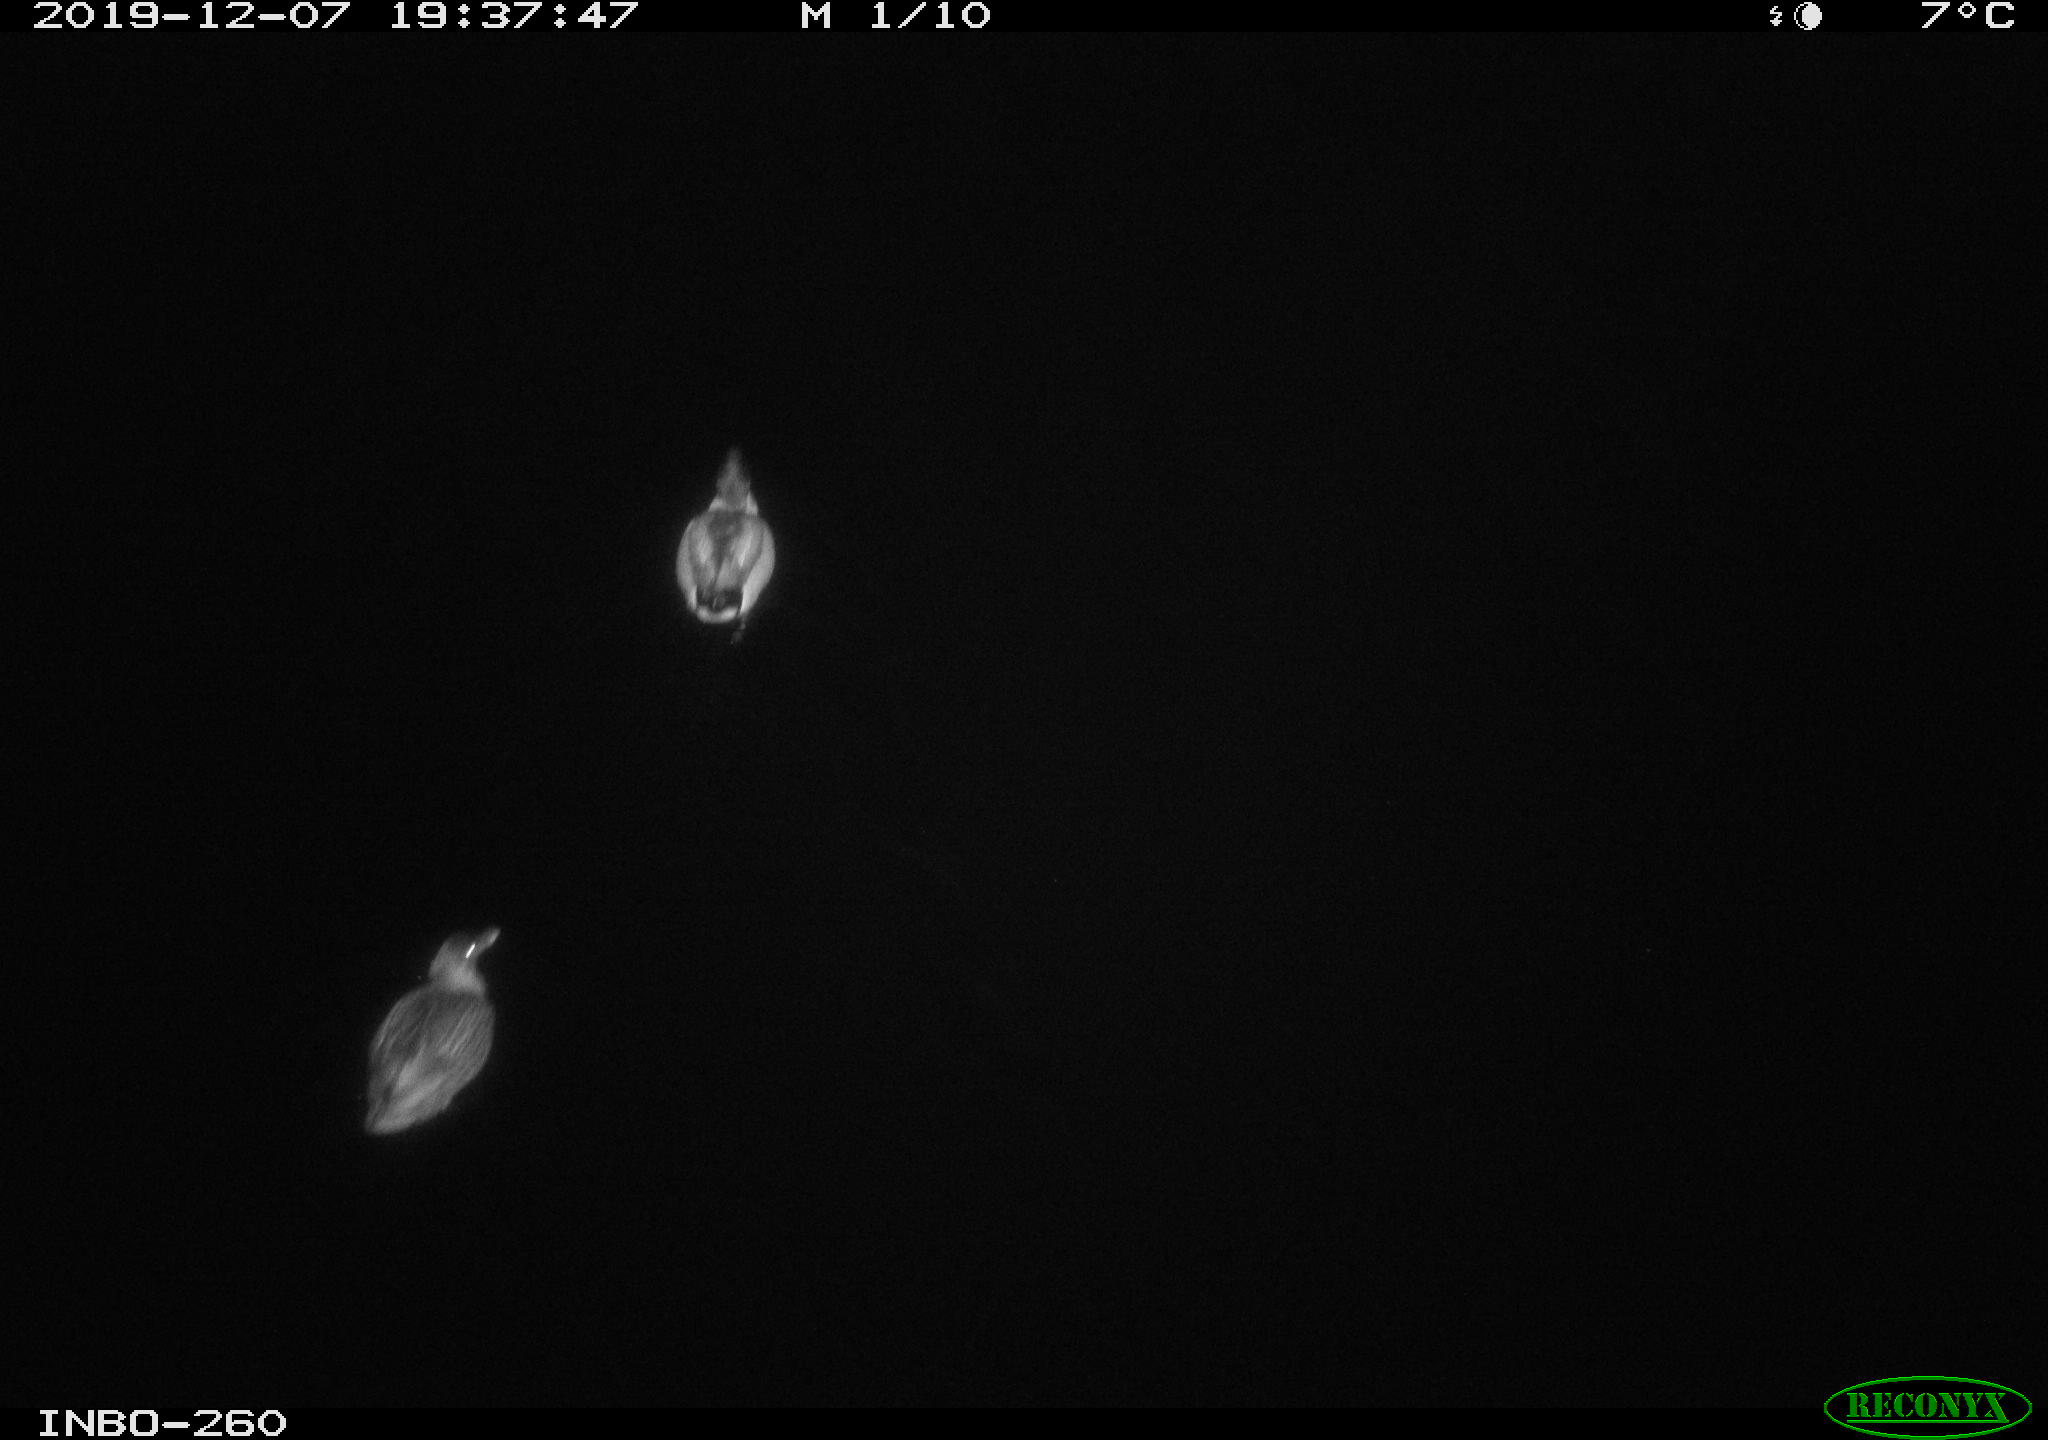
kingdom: Animalia
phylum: Chordata
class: Aves
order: Anseriformes
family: Anatidae
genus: Anas
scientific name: Anas platyrhynchos
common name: Mallard
